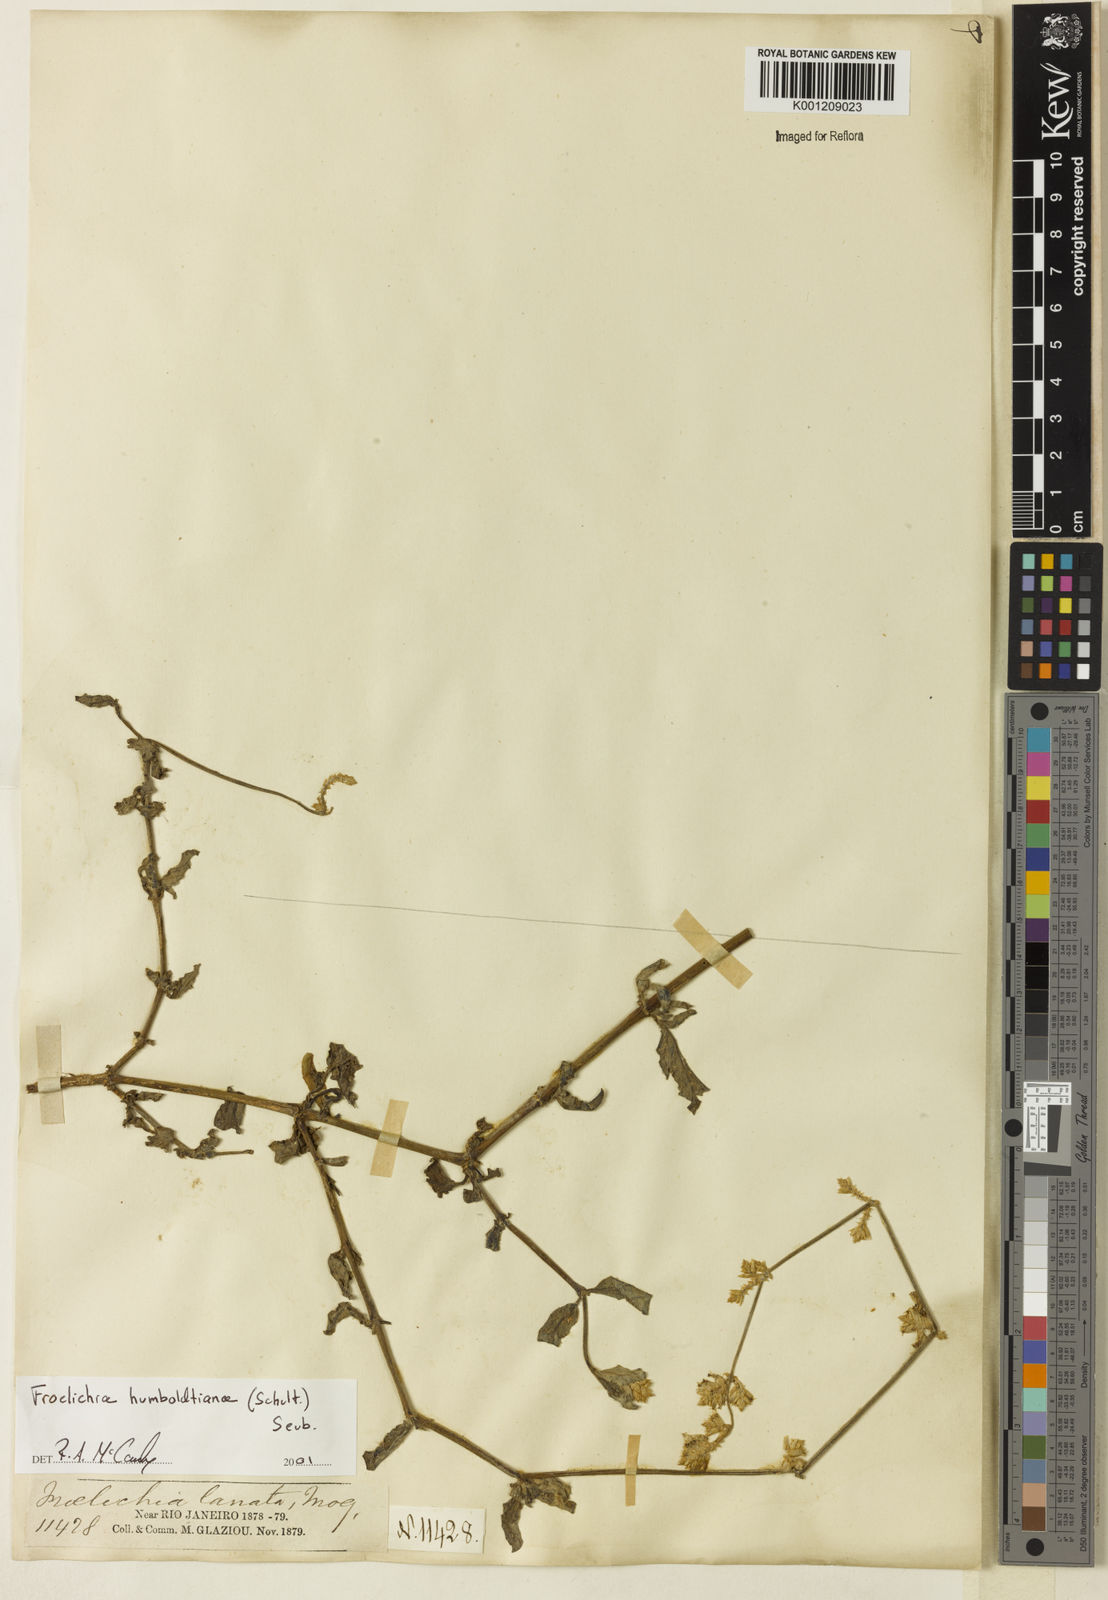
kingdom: Plantae
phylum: Tracheophyta
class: Magnoliopsida
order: Caryophyllales
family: Amaranthaceae
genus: Froelichia
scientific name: Froelichia humboldtiana
